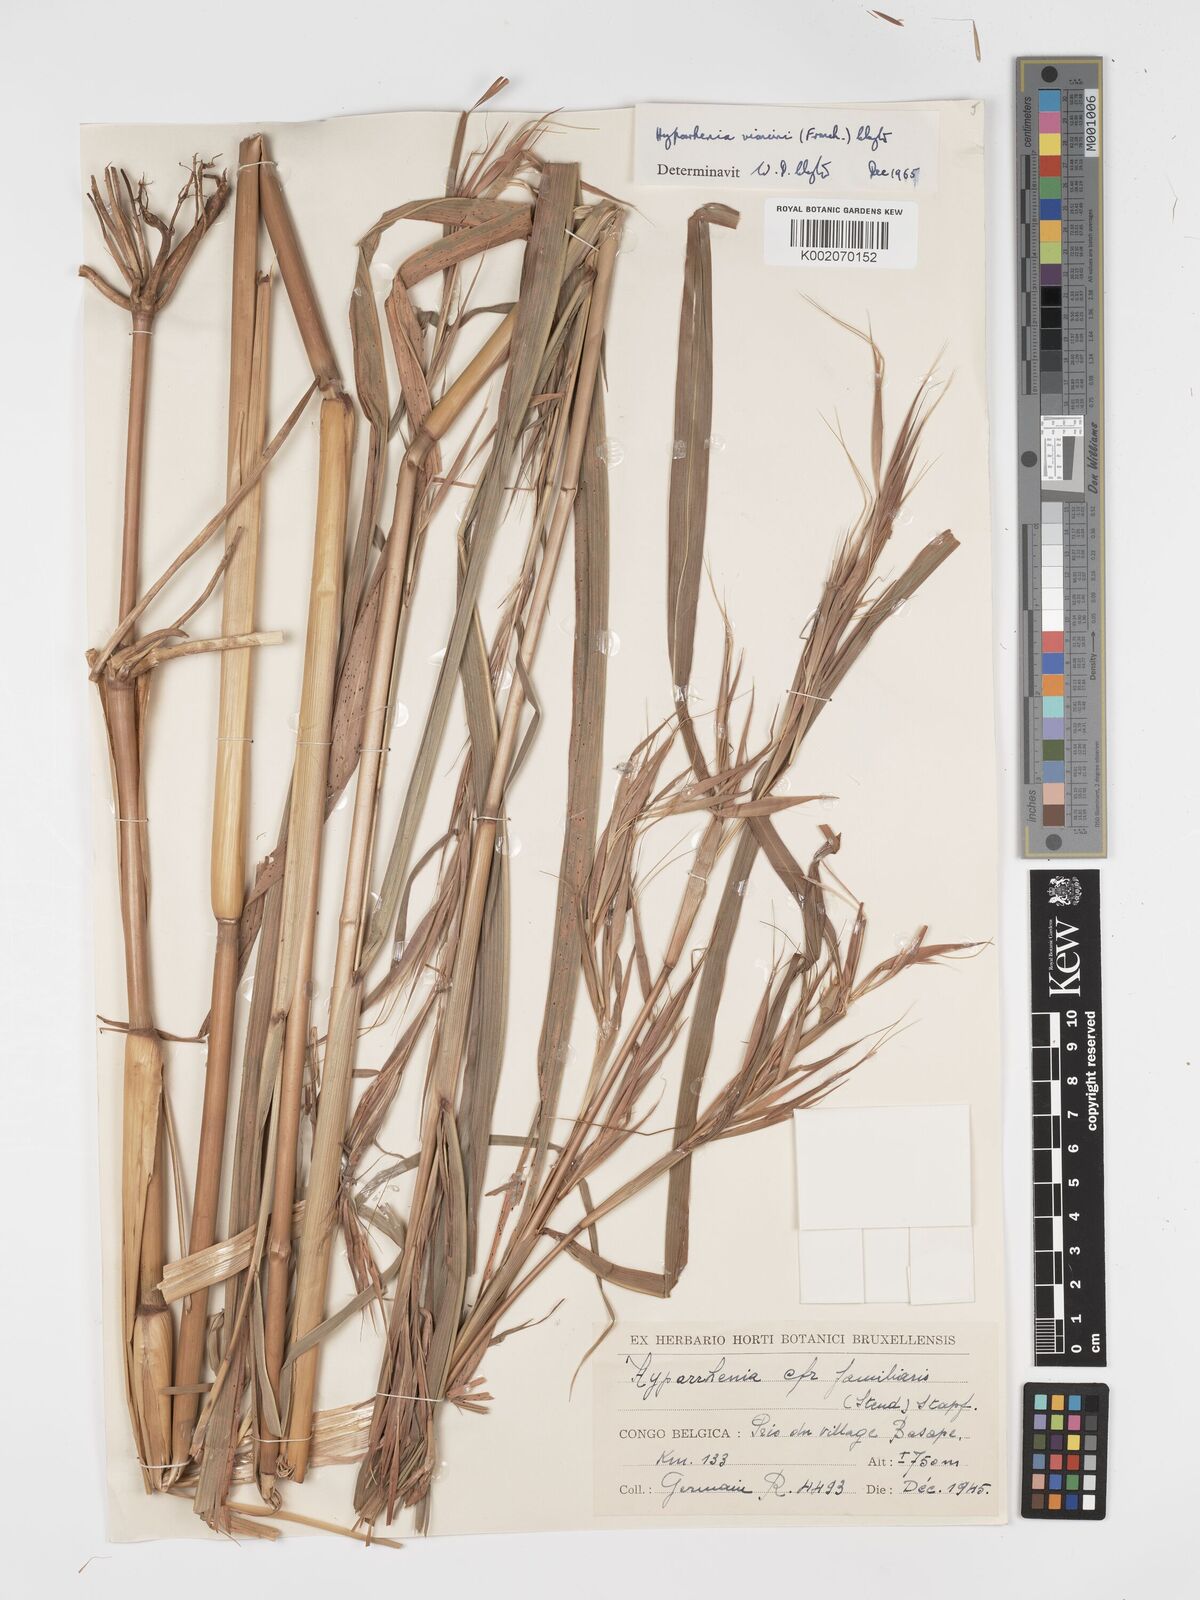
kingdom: Plantae
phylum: Tracheophyta
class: Liliopsida
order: Poales
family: Poaceae
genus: Hyparrhenia
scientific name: Hyparrhenia niariensis
